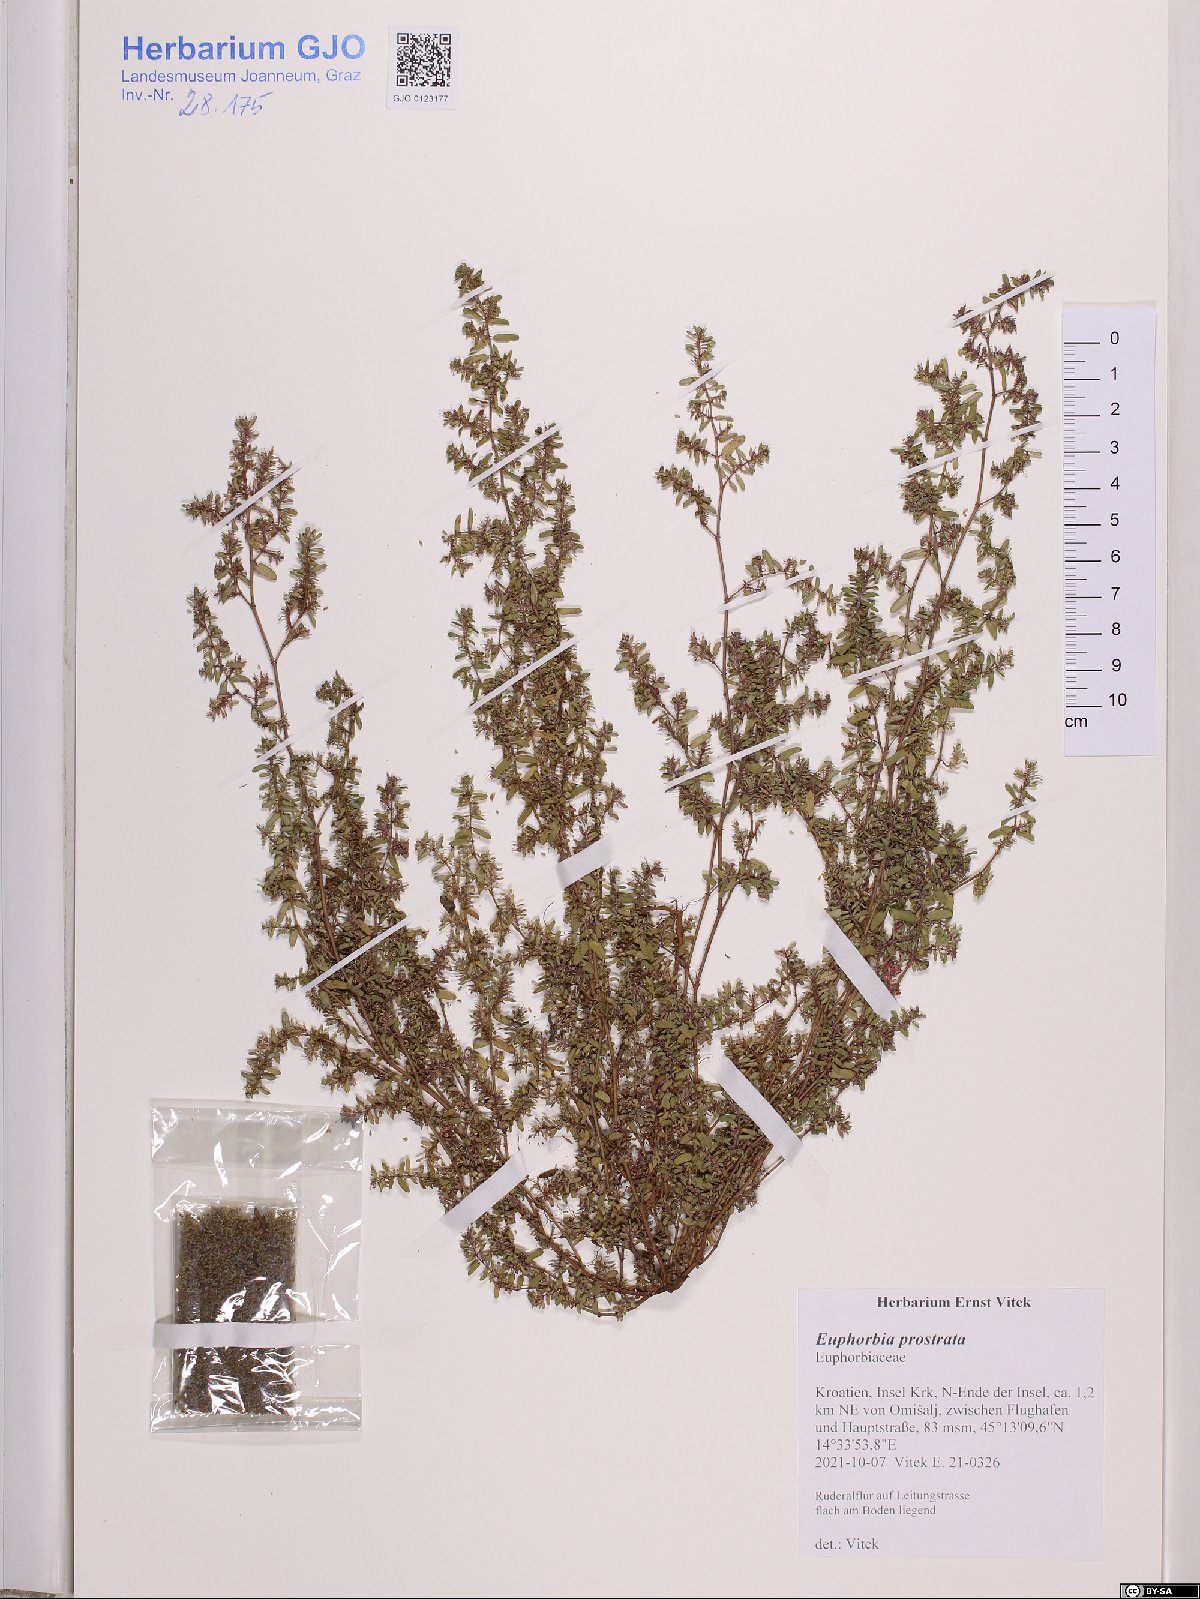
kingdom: Plantae
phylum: Tracheophyta
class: Magnoliopsida
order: Malpighiales
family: Euphorbiaceae
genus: Euphorbia
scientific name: Euphorbia prostrata
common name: Prostrate sandmat
